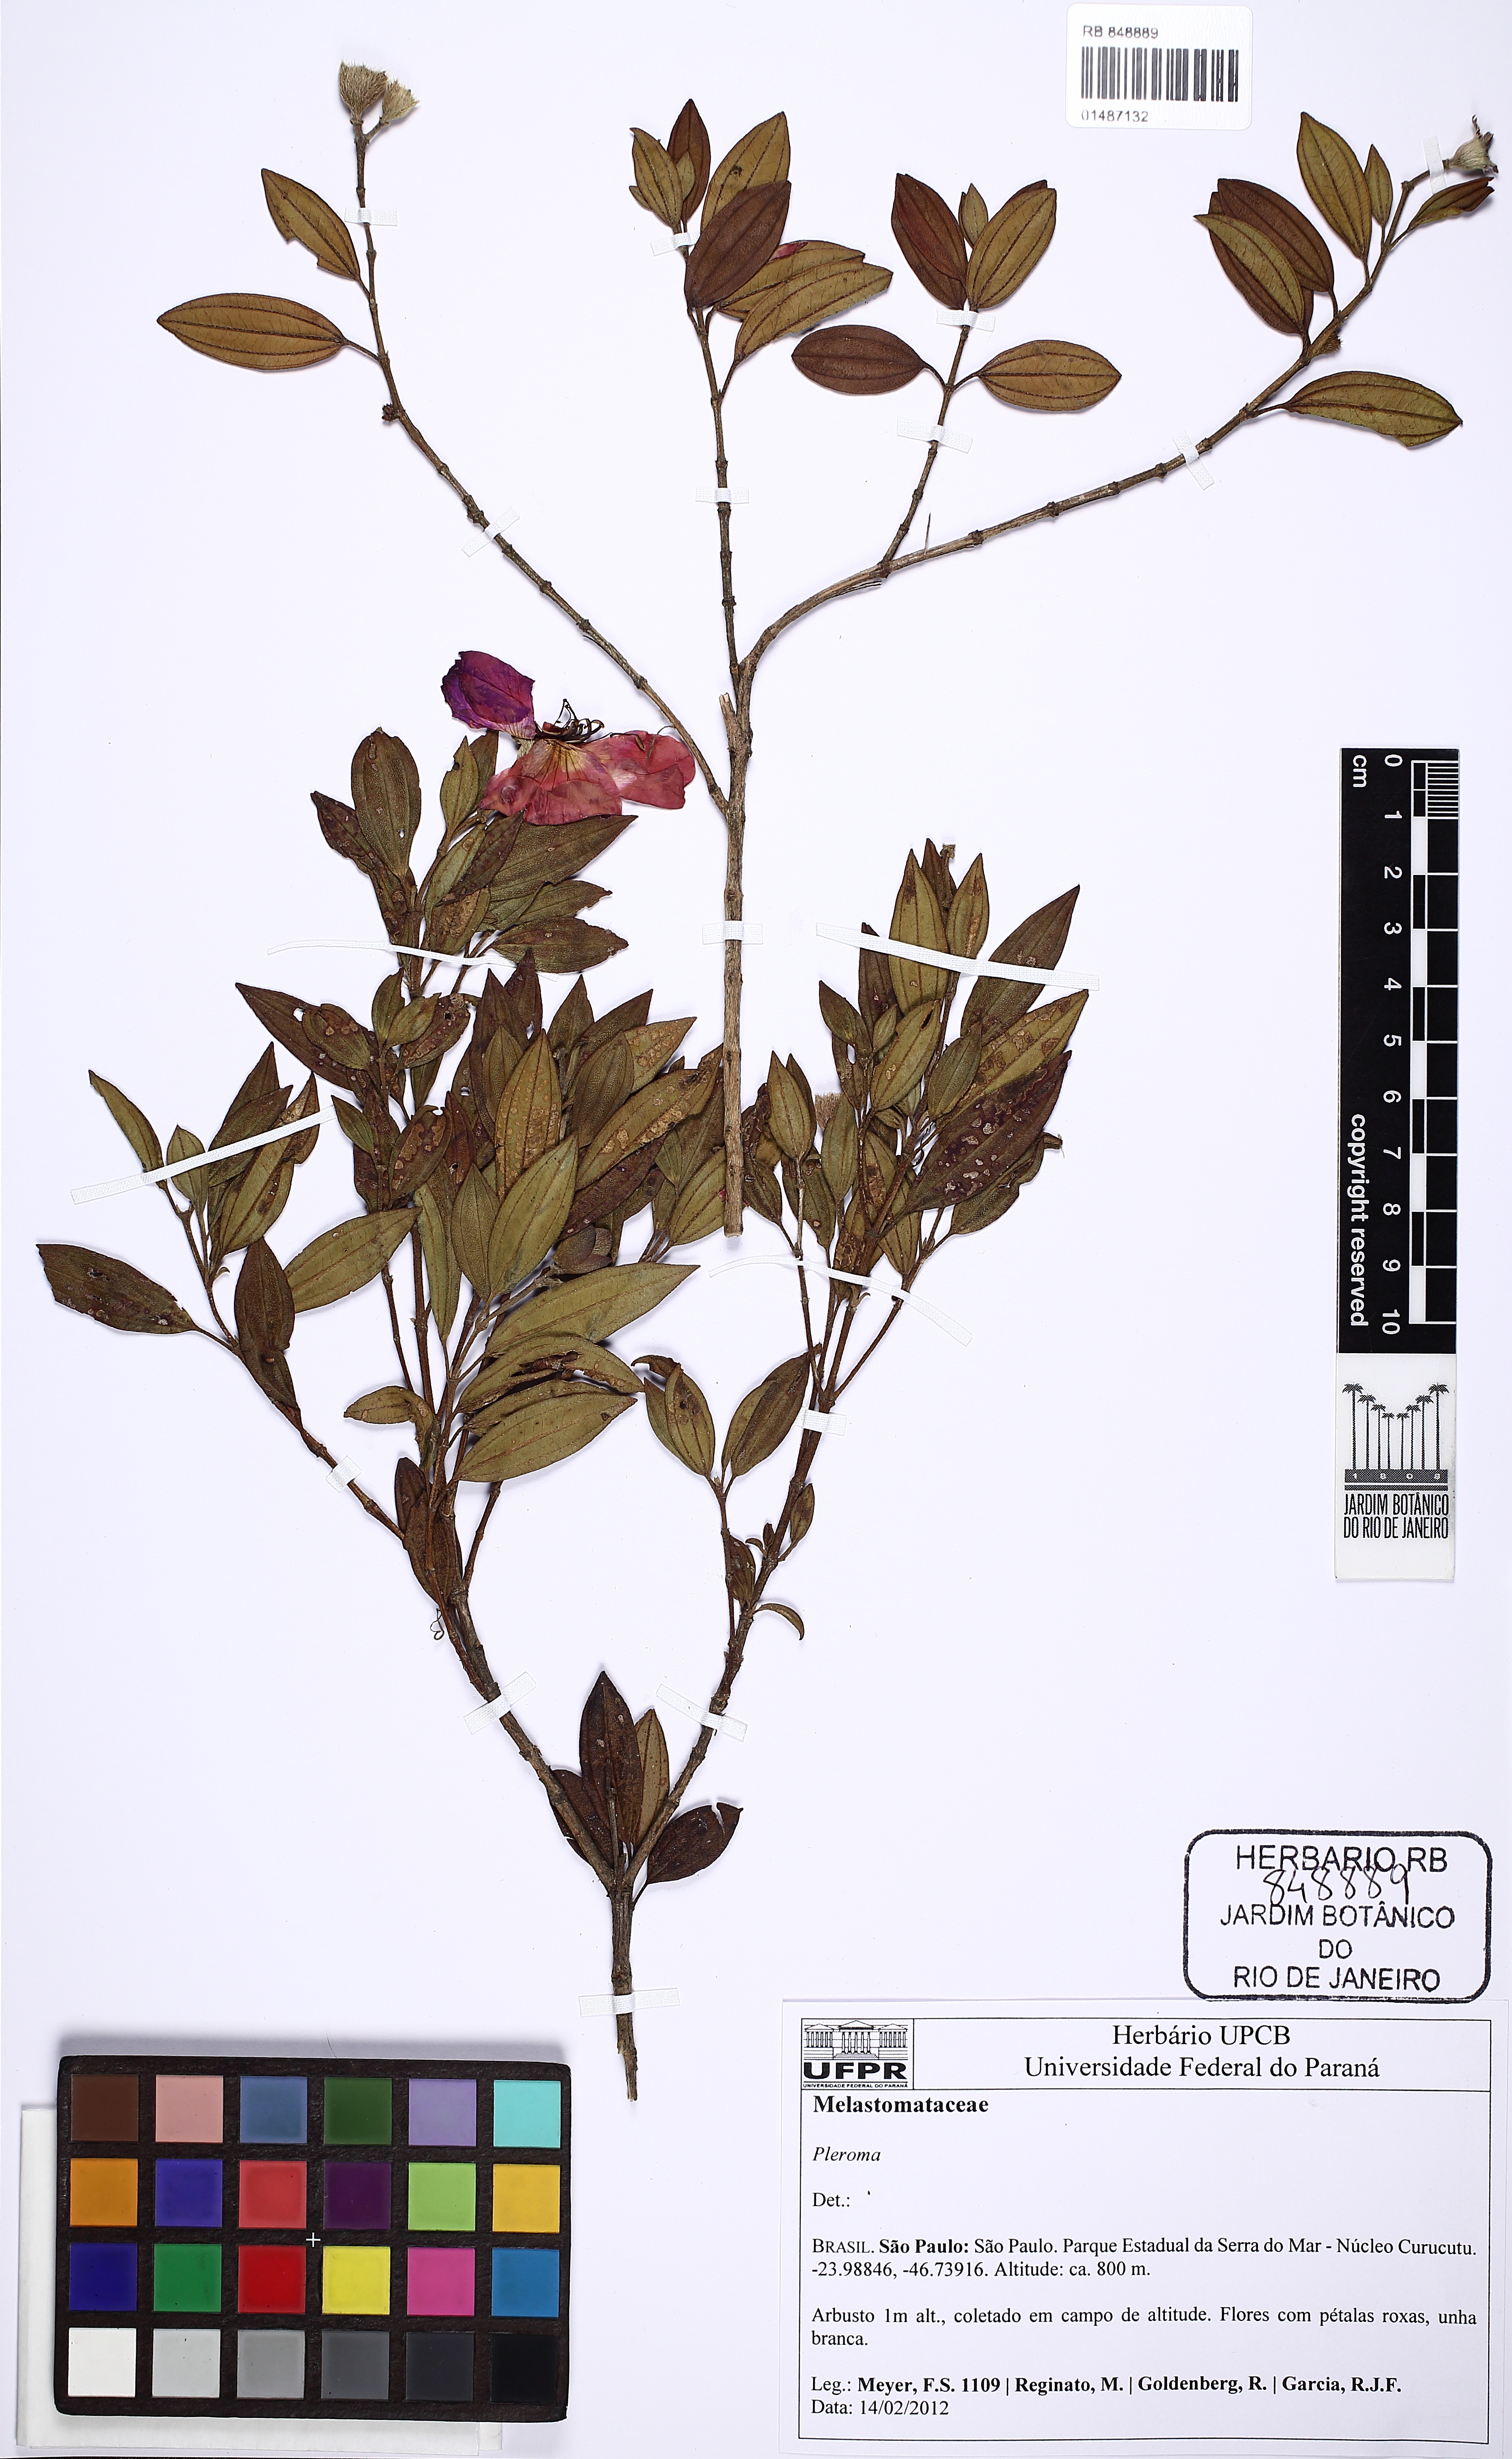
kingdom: Plantae
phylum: Tracheophyta
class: Magnoliopsida
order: Myrtales
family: Melastomataceae
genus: Pleroma
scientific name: Pleroma
